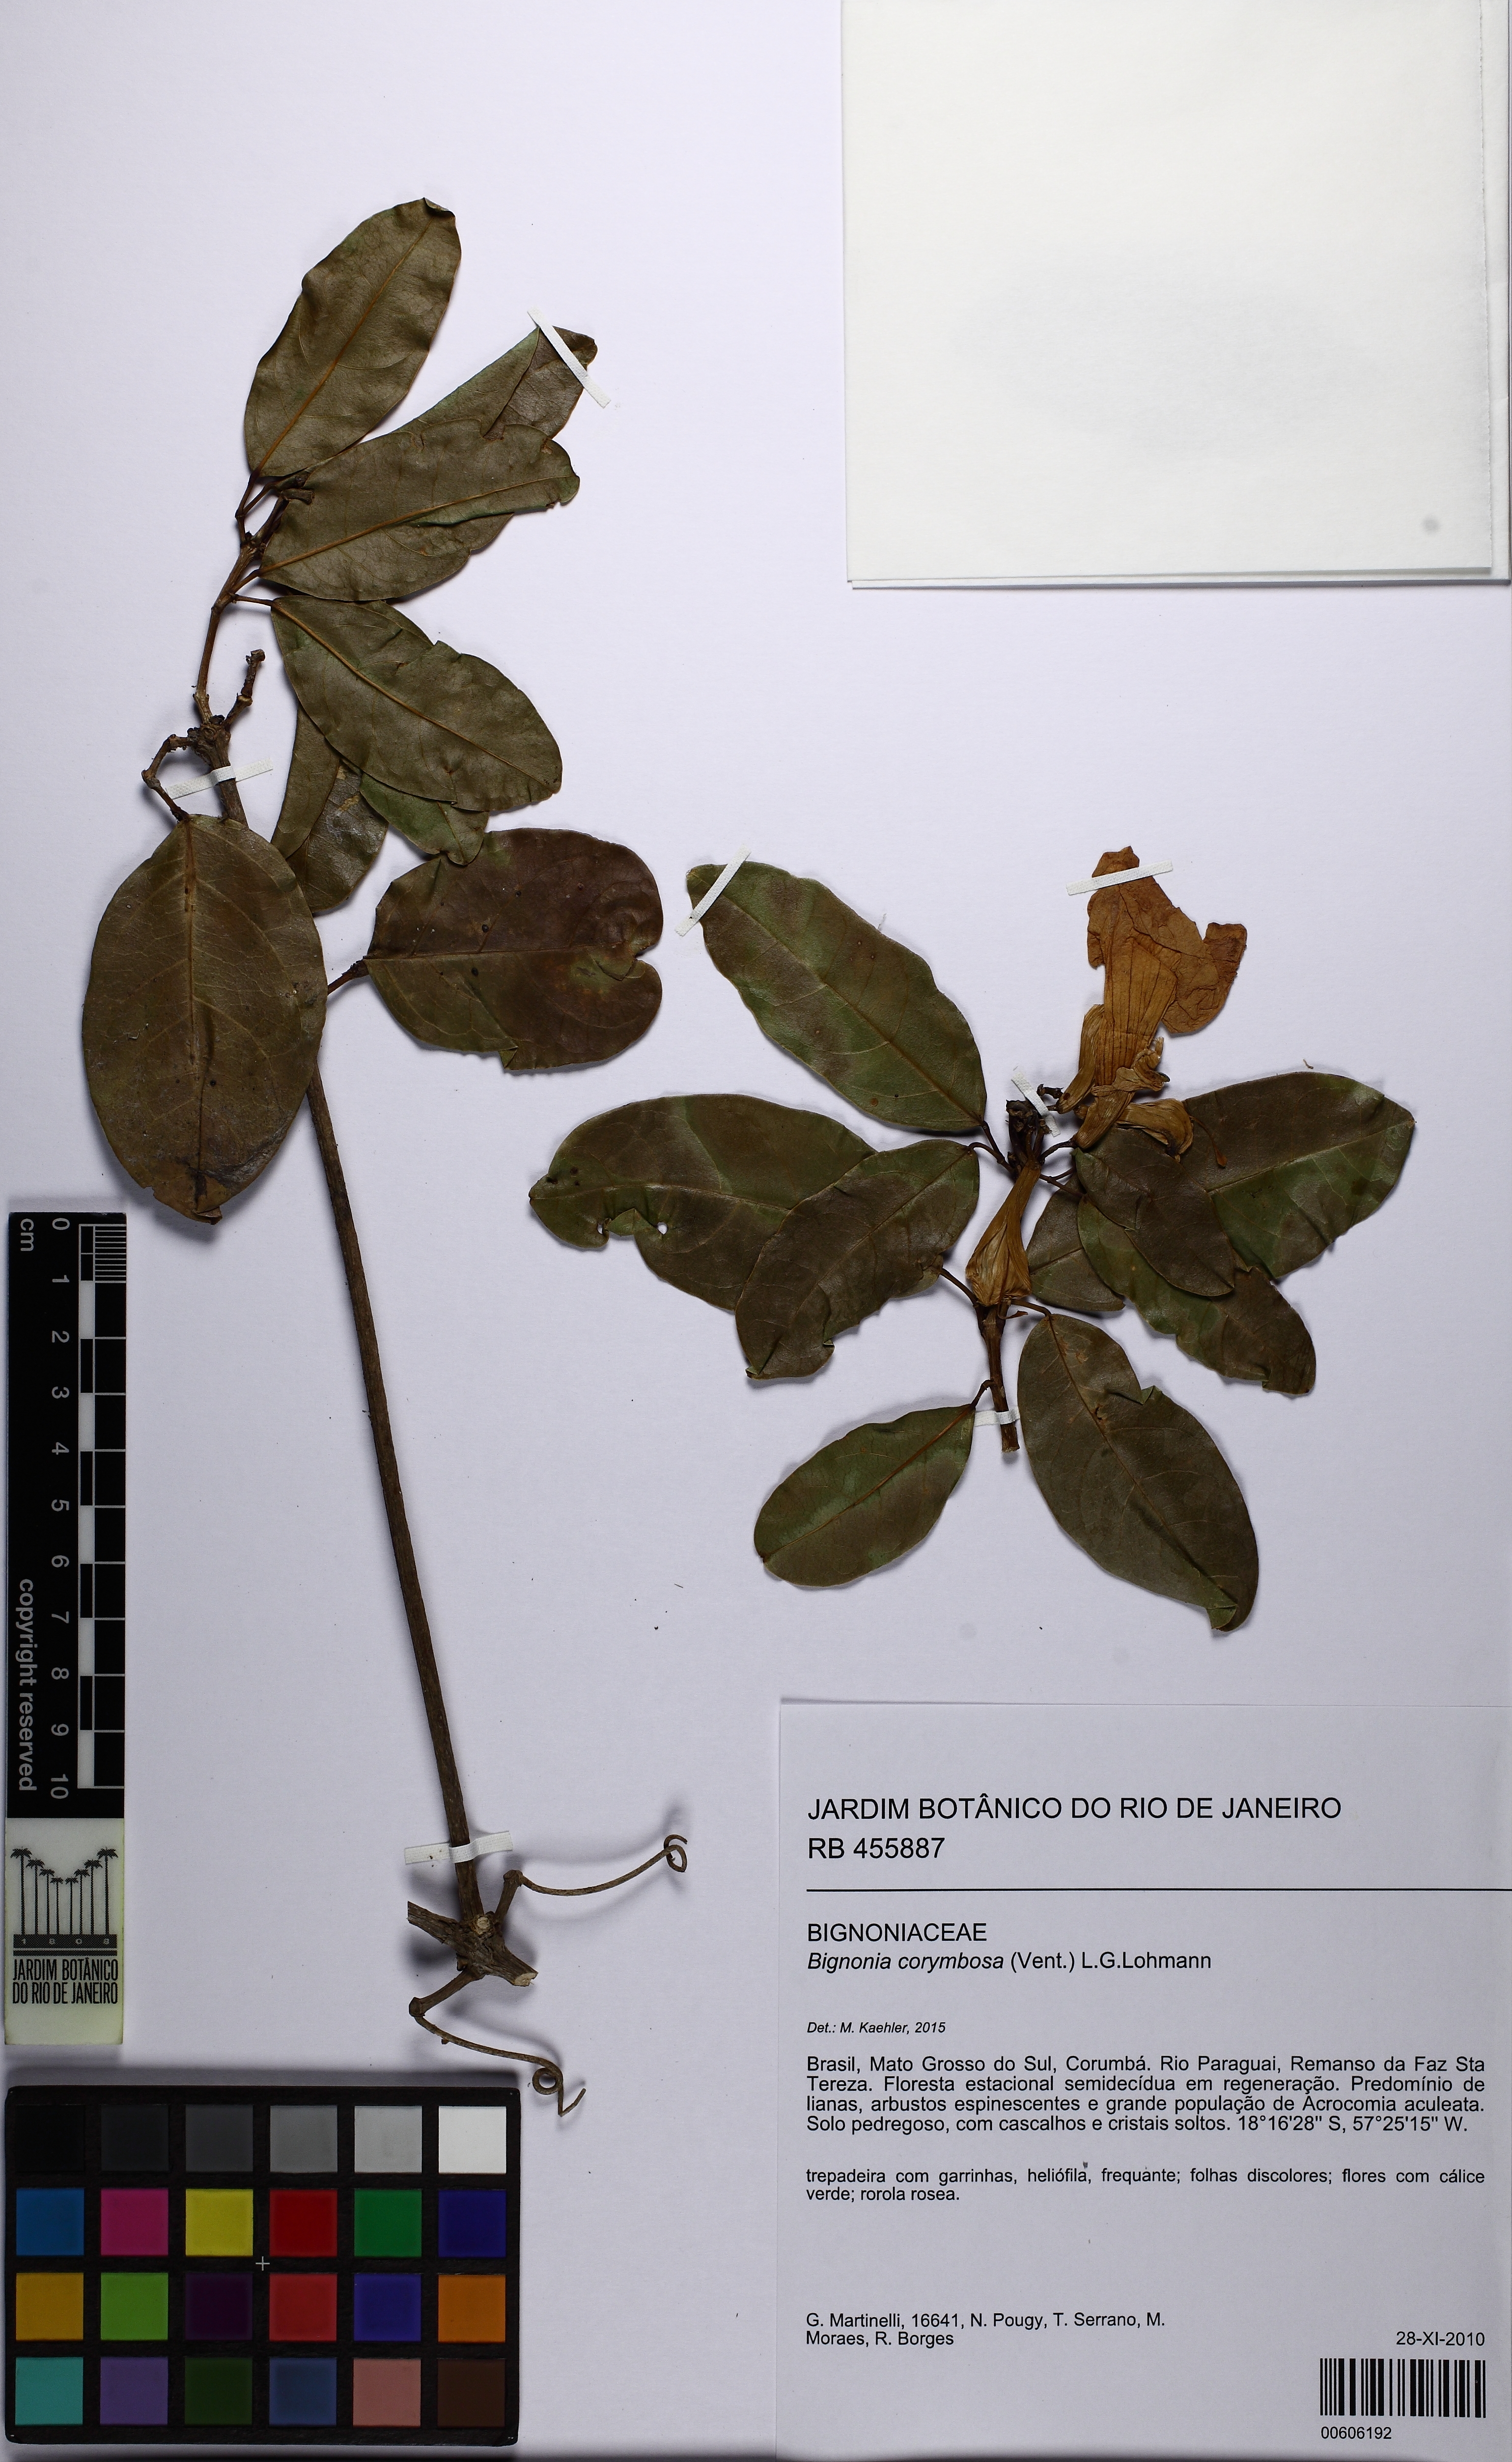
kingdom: Plantae
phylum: Tracheophyta
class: Magnoliopsida
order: Lamiales
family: Bignoniaceae
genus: Bignonia
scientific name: Bignonia corymbosa
